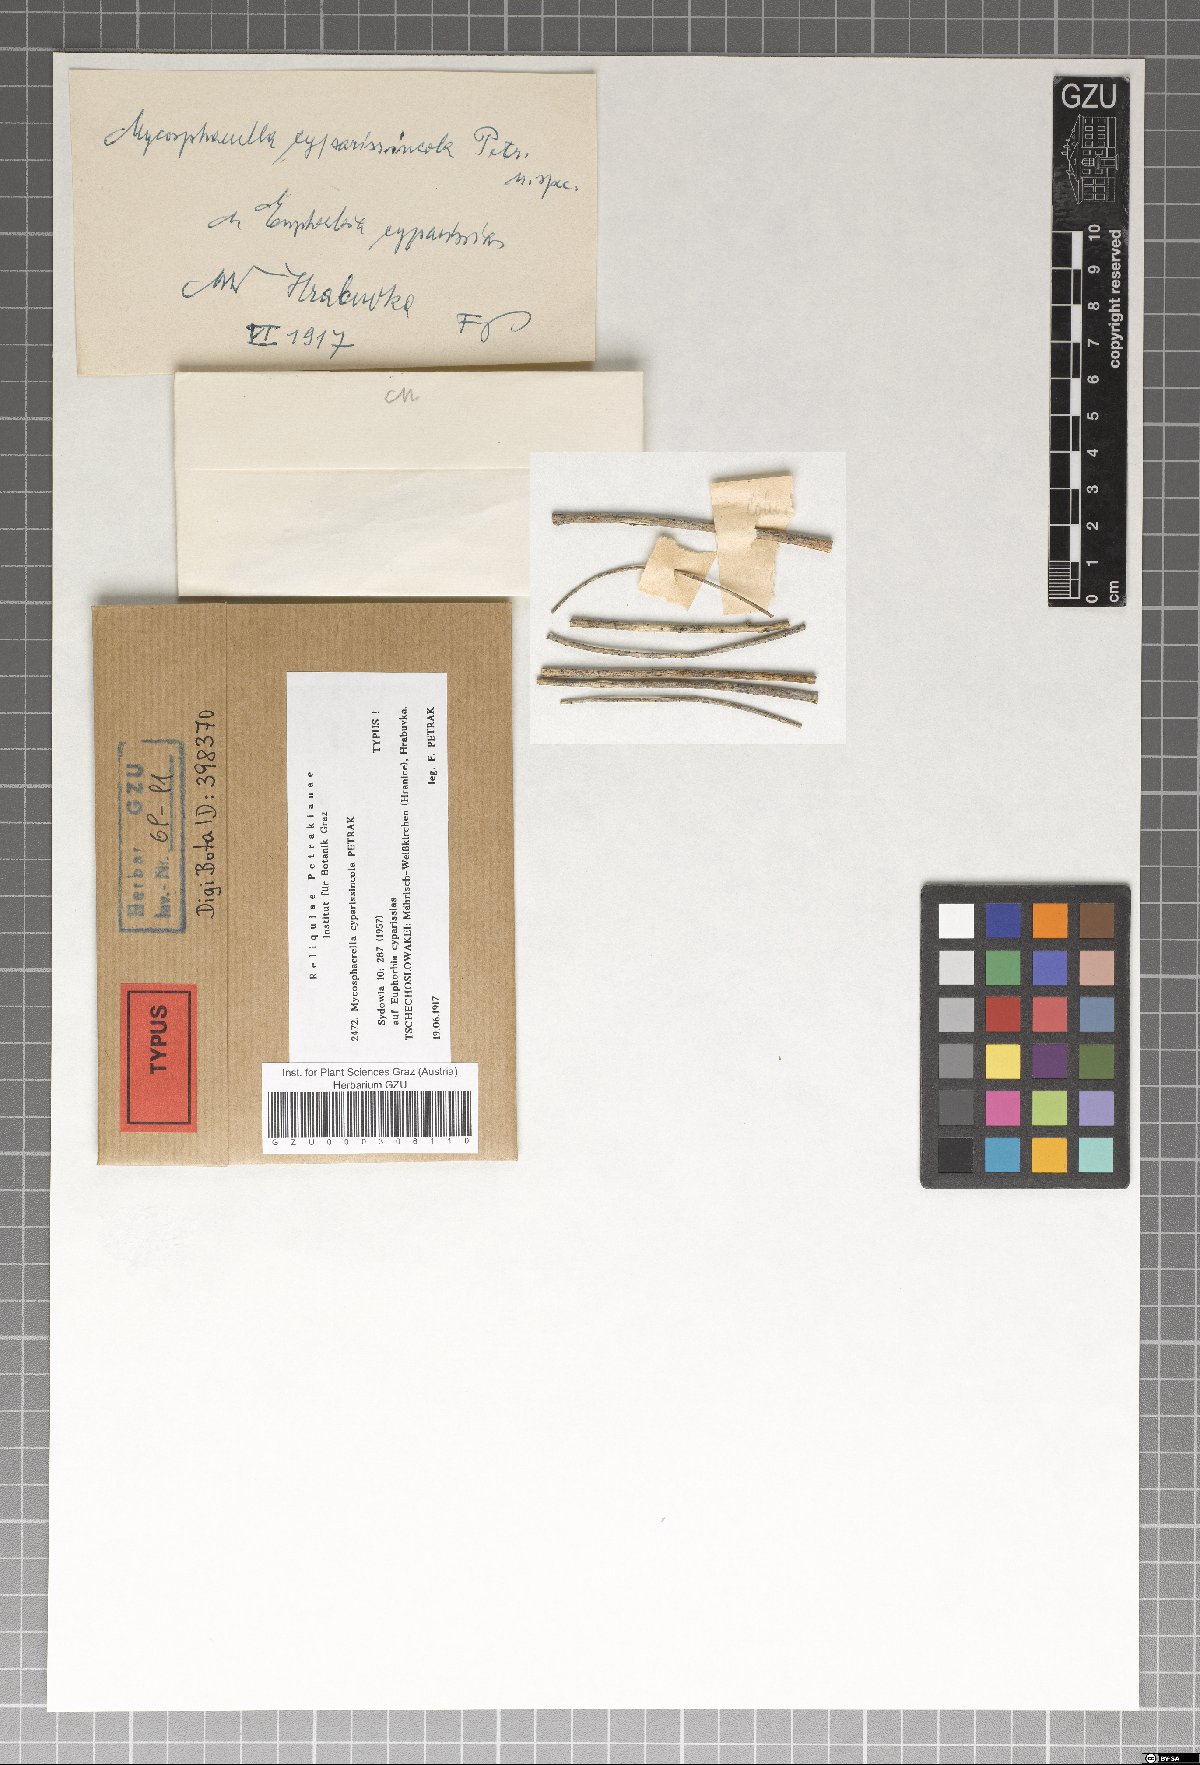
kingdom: Fungi
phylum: Ascomycota
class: Dothideomycetes
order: Mycosphaerellales
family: Mycosphaerellaceae
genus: Mycosphaerella
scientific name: Mycosphaerella cyparissincola
